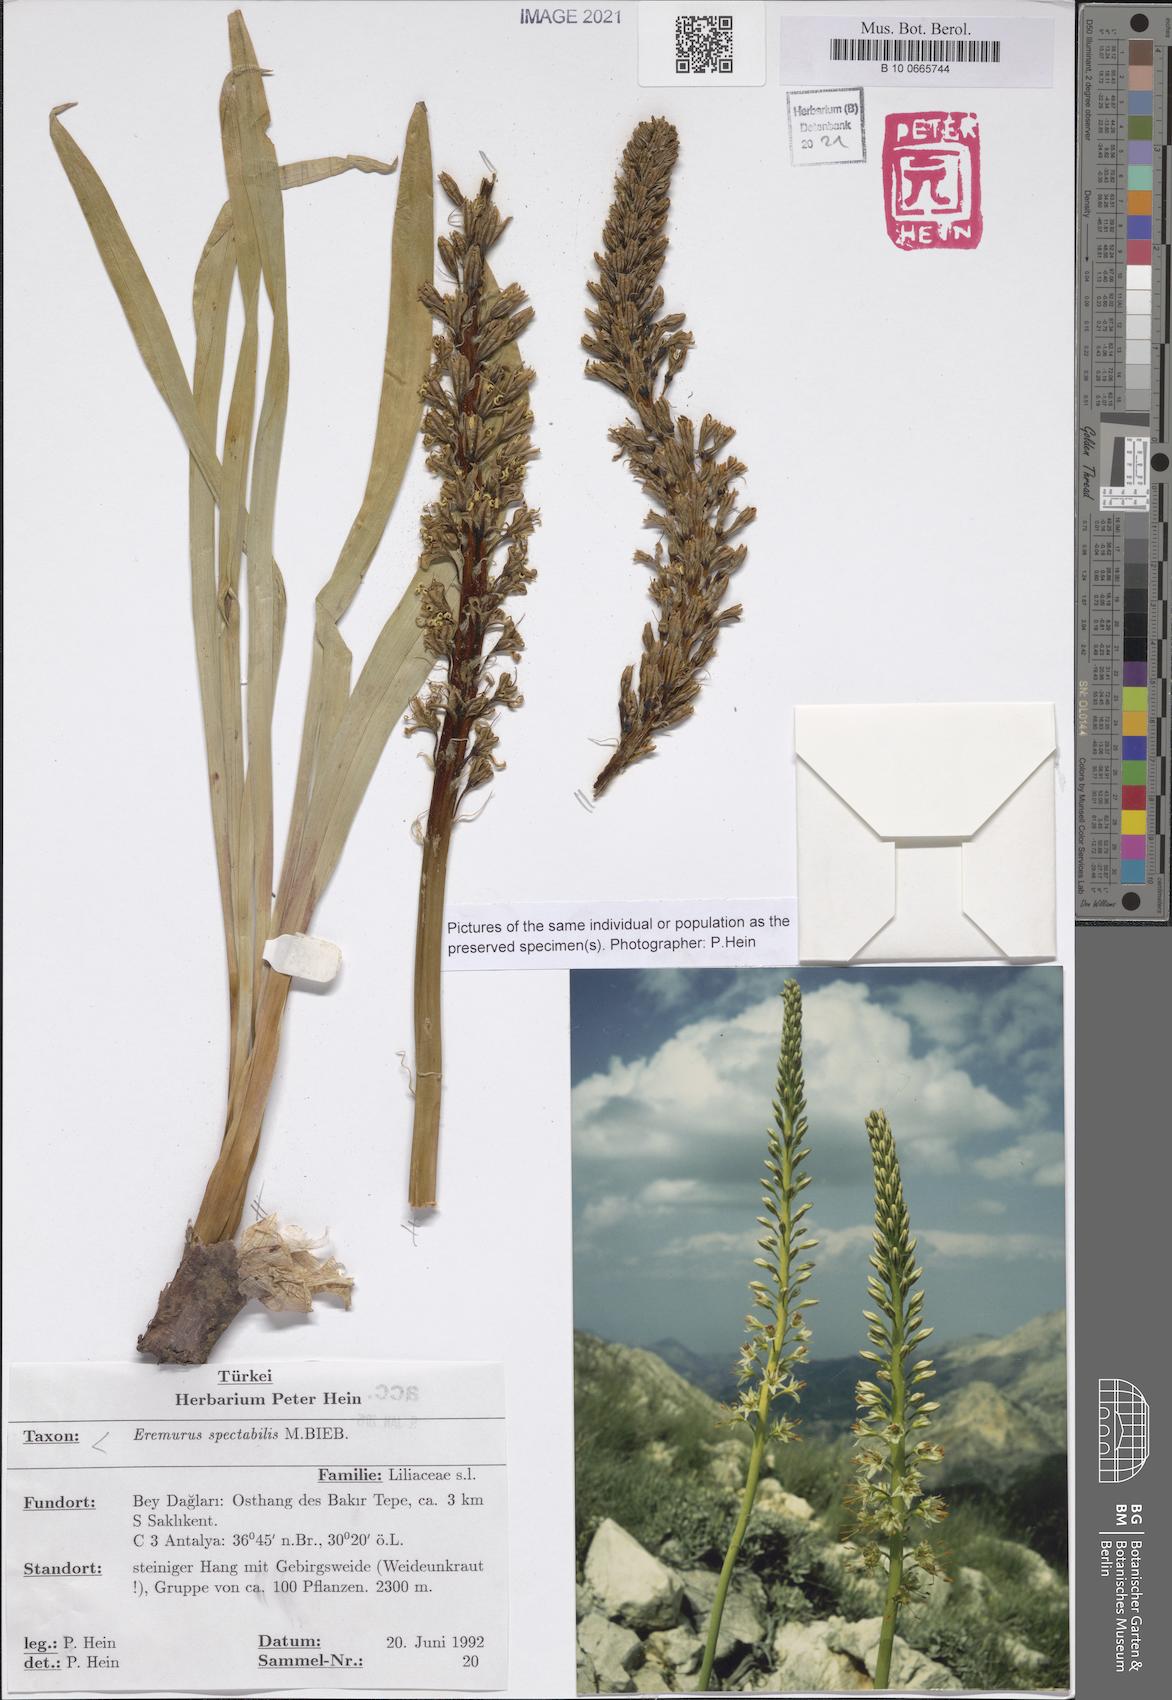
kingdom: Plantae
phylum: Tracheophyta
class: Liliopsida
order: Asparagales
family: Asphodelaceae
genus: Eremurus
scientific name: Eremurus spectabilis
